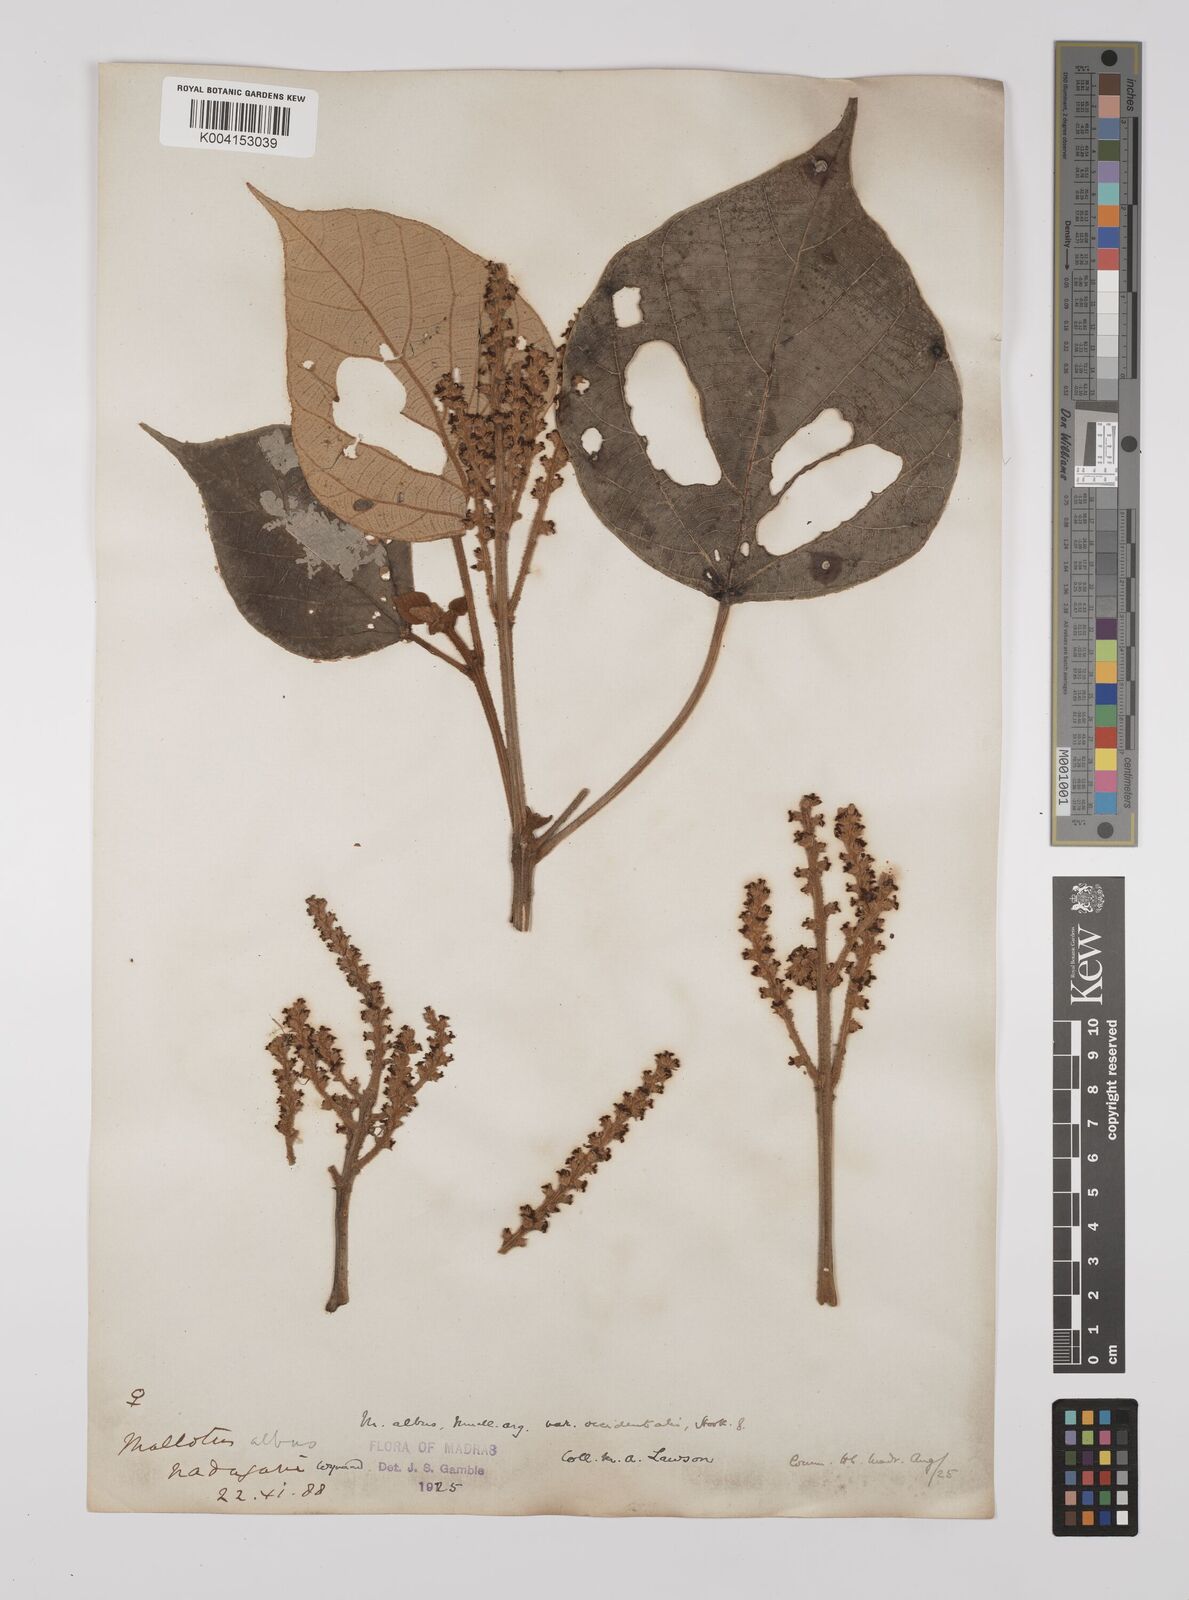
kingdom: Plantae
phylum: Tracheophyta
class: Magnoliopsida
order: Malpighiales
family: Euphorbiaceae
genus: Mallotus
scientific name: Mallotus paniculatus
